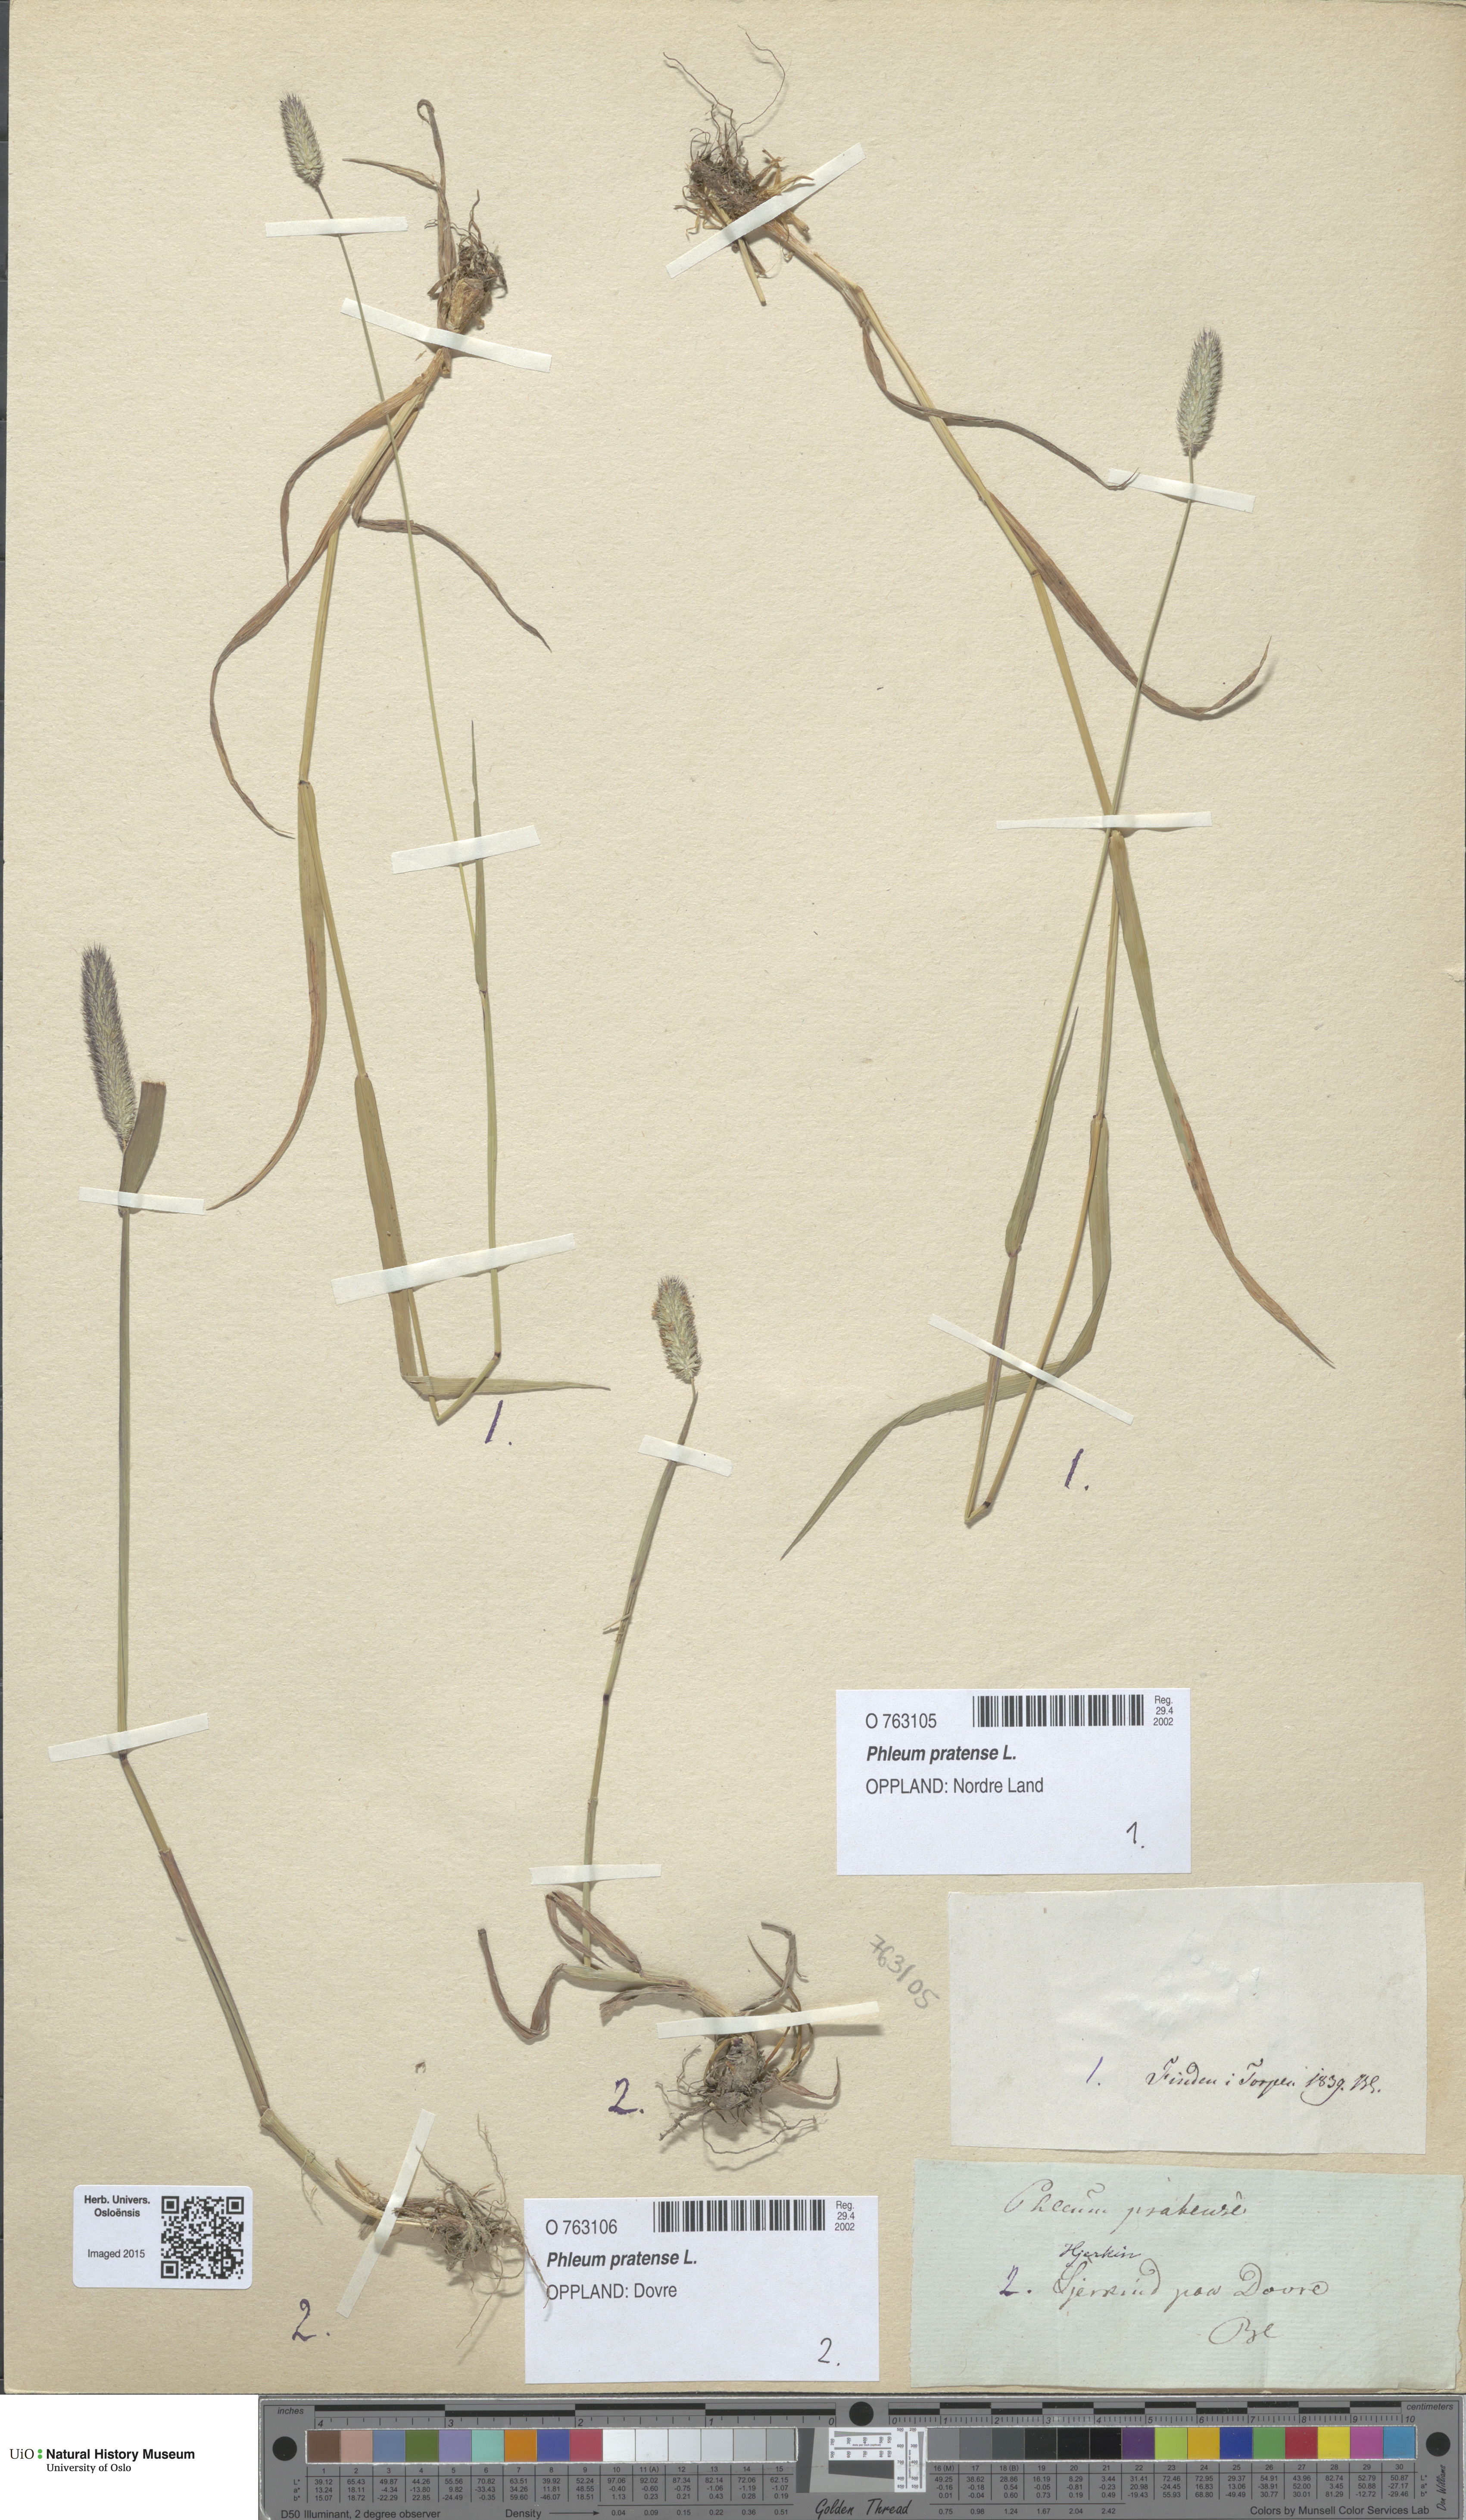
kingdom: Plantae
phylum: Tracheophyta
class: Liliopsida
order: Poales
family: Poaceae
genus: Phleum
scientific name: Phleum pratense
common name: Timothy grass
